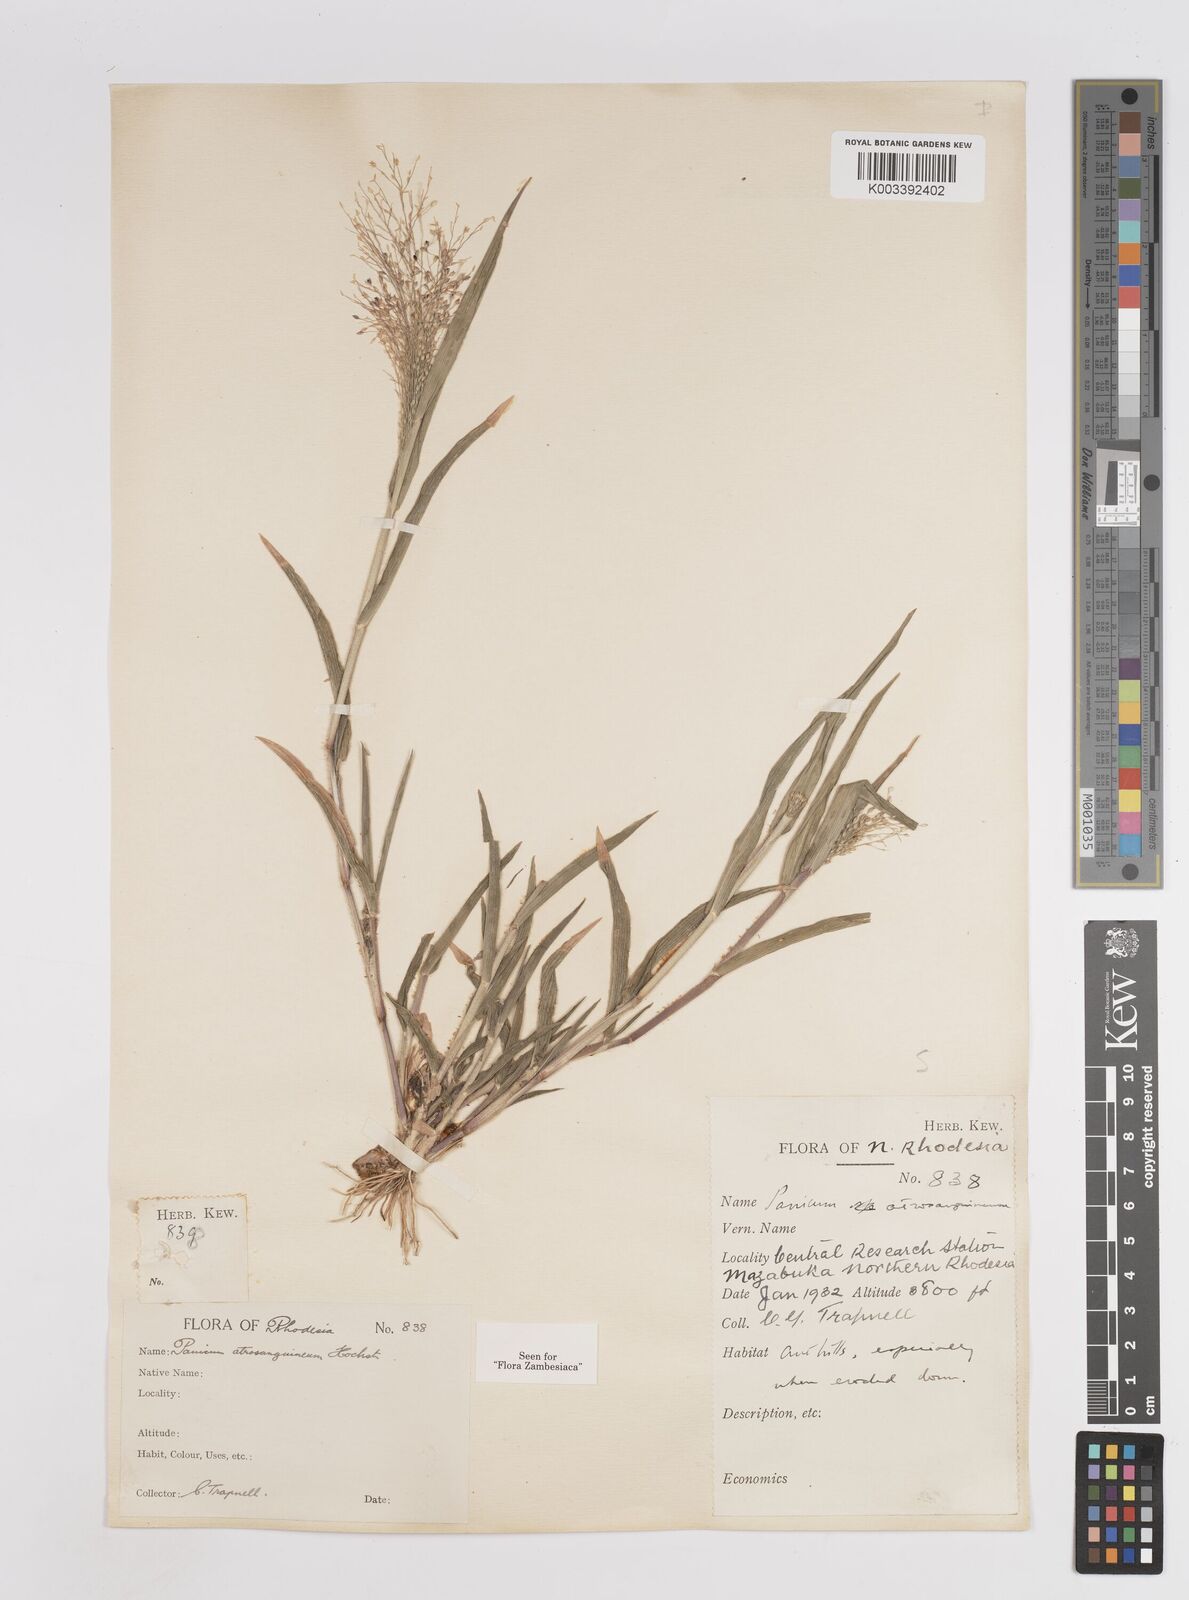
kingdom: Plantae
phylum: Tracheophyta
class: Liliopsida
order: Poales
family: Poaceae
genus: Panicum
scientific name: Panicum atrosanguineum
